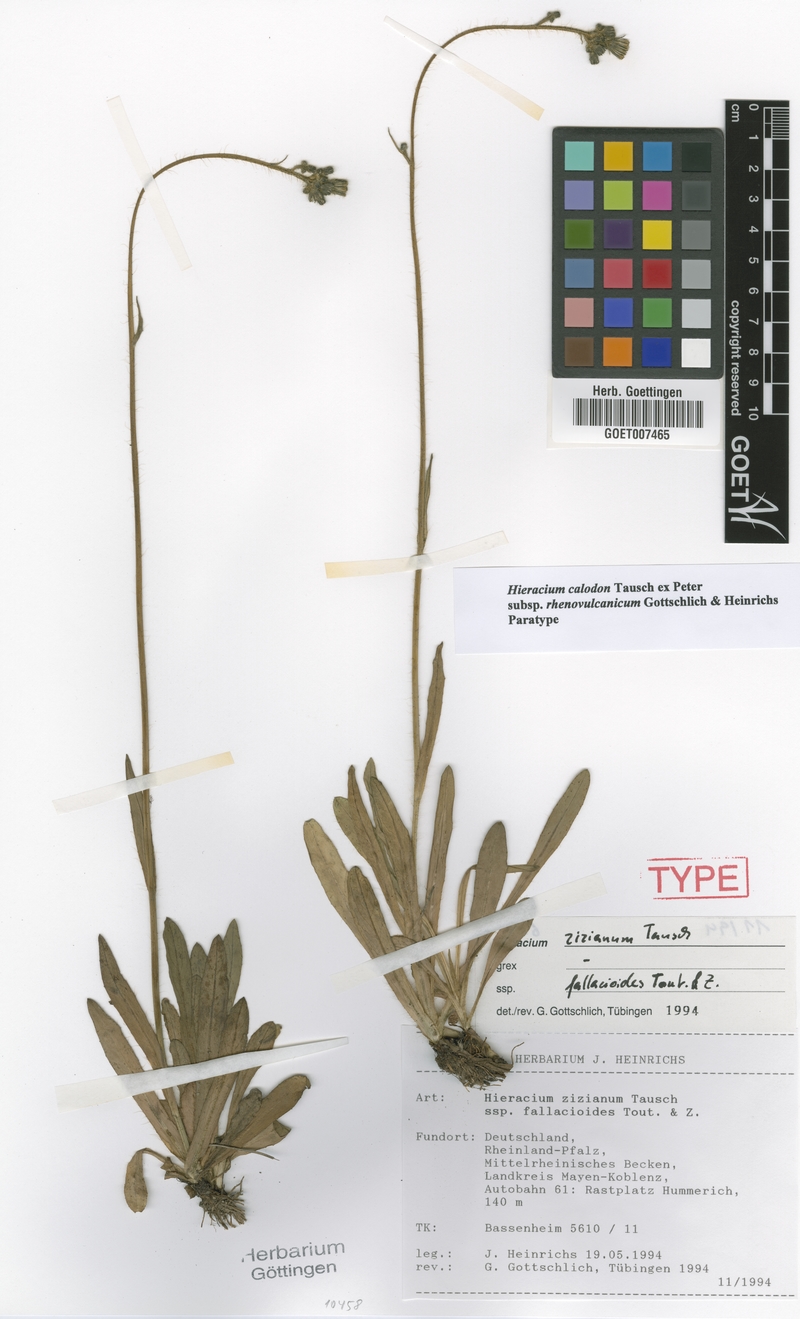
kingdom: Plantae
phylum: Tracheophyta
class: Magnoliopsida
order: Asterales
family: Asteraceae
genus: Pilosella
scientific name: Pilosella calodon
